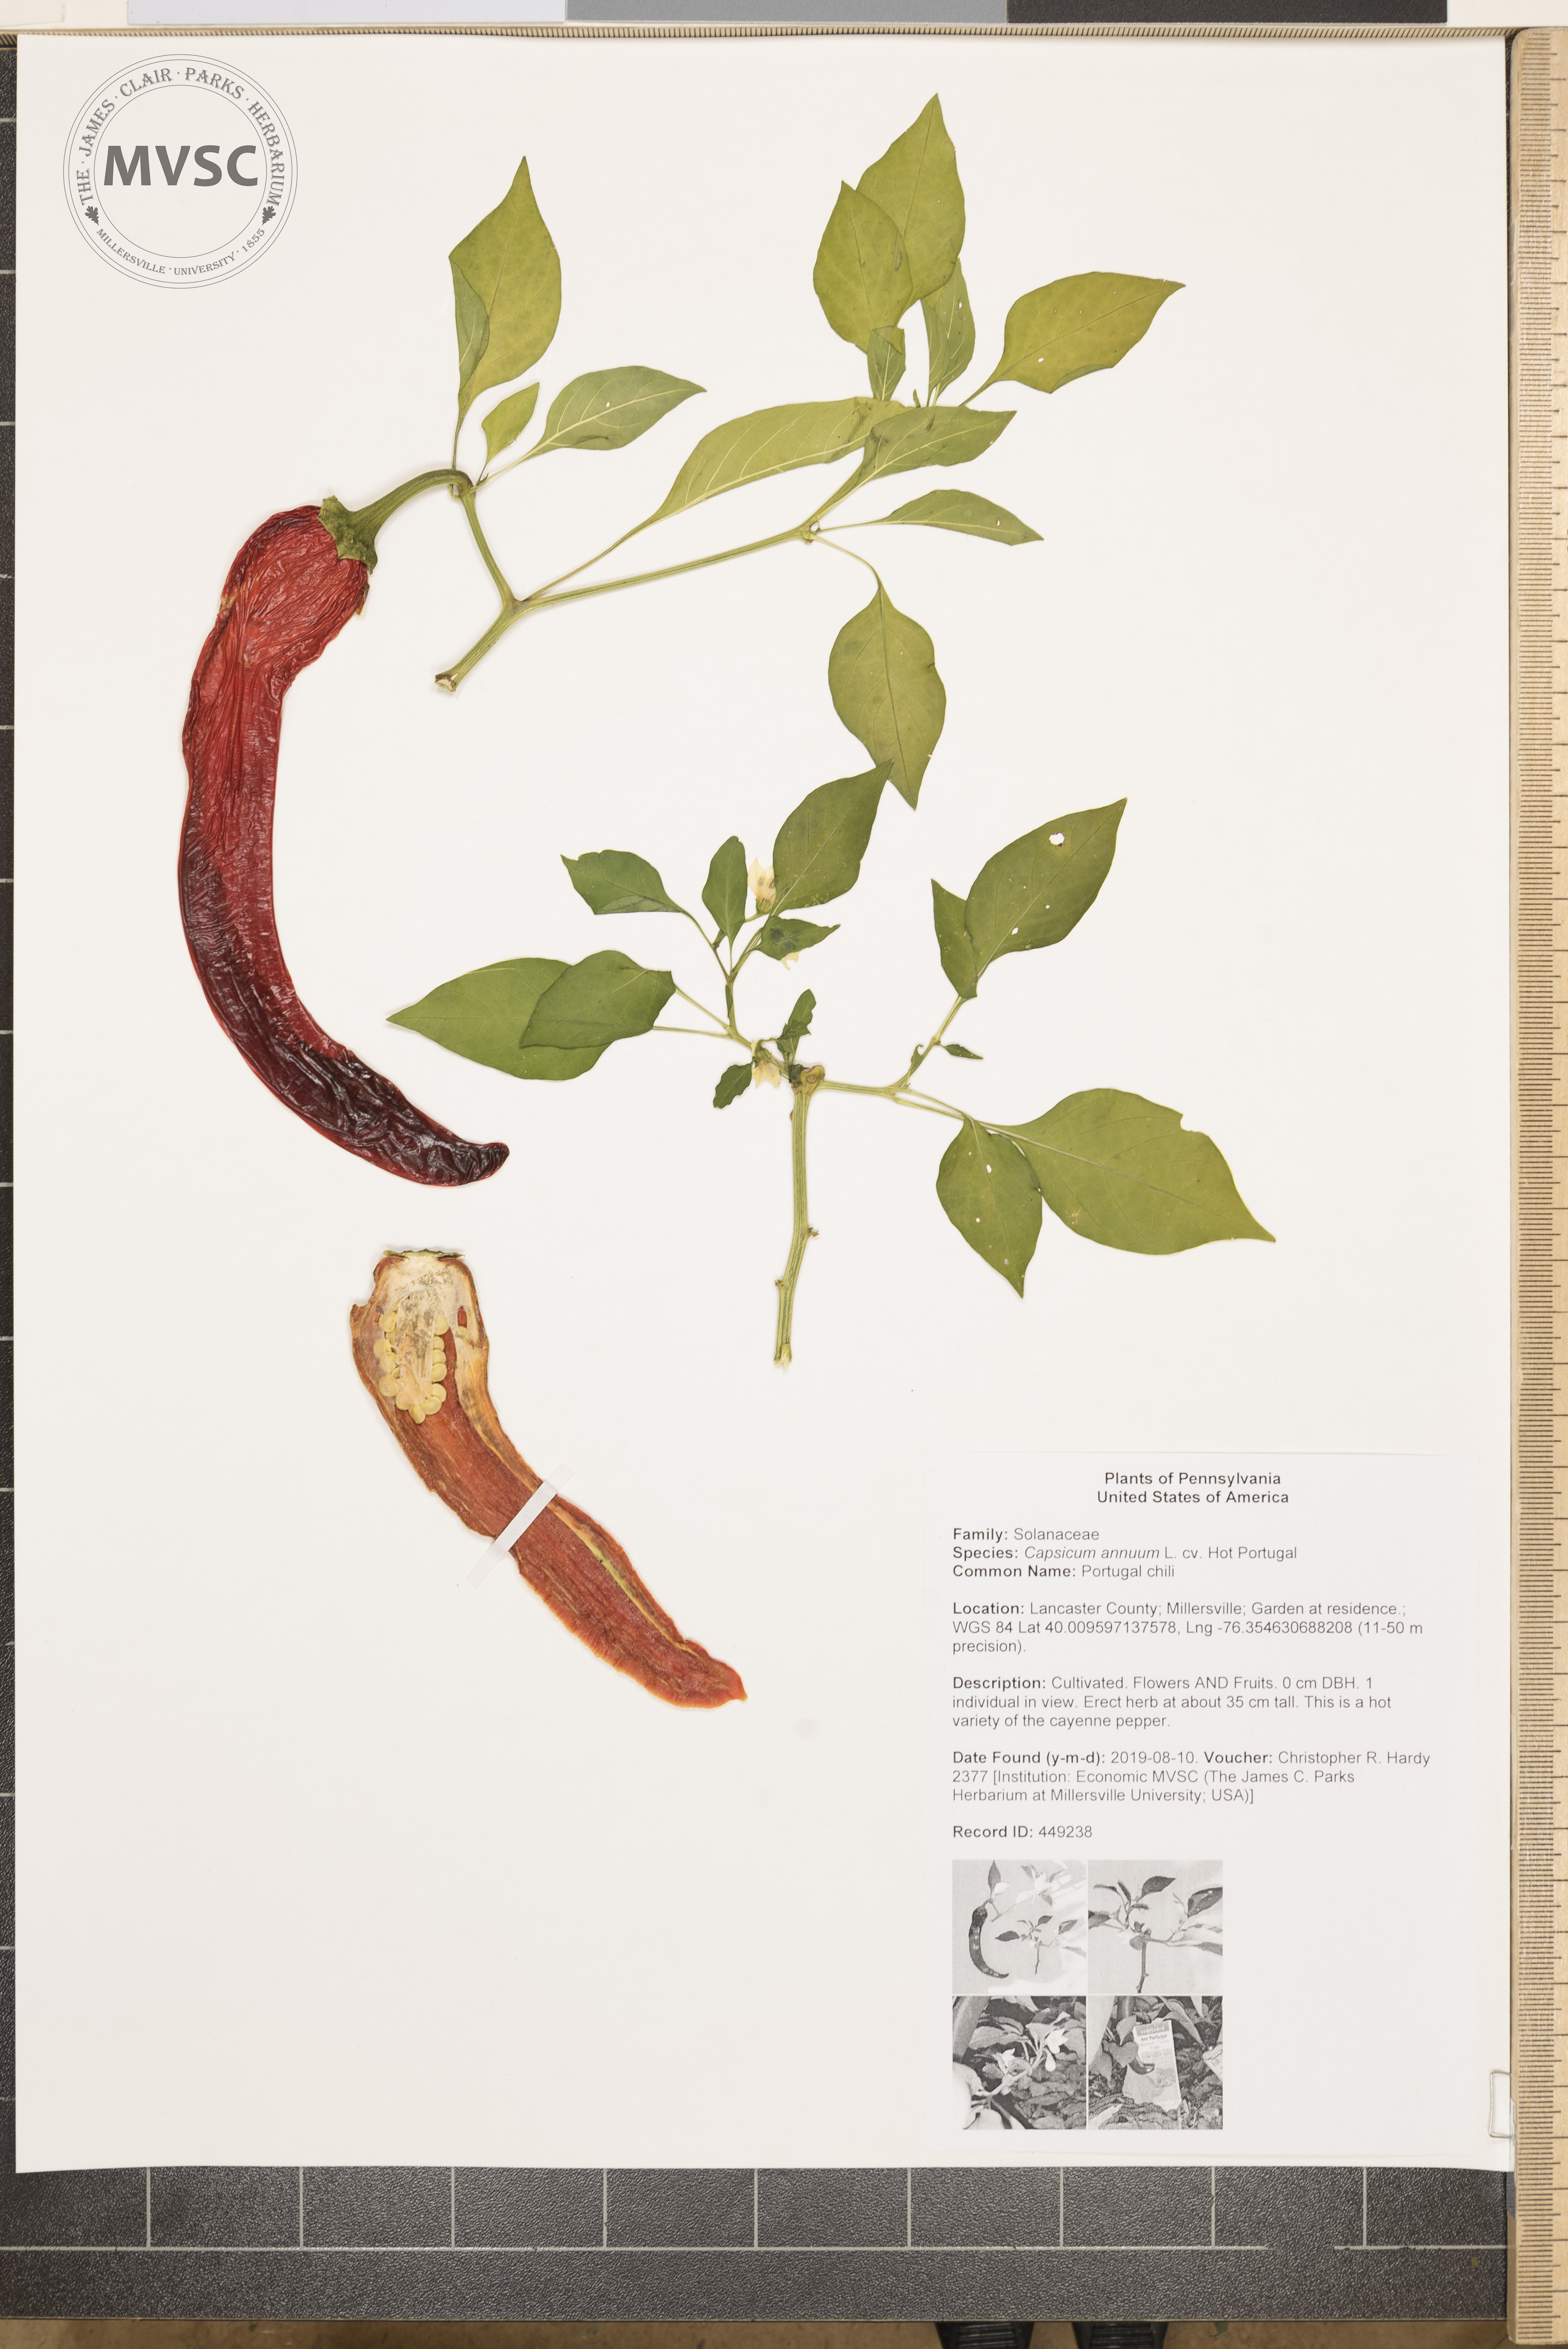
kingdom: Plantae
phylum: Tracheophyta
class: Magnoliopsida
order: Solanales
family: Solanaceae
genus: Capsicum
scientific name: Capsicum annuum
